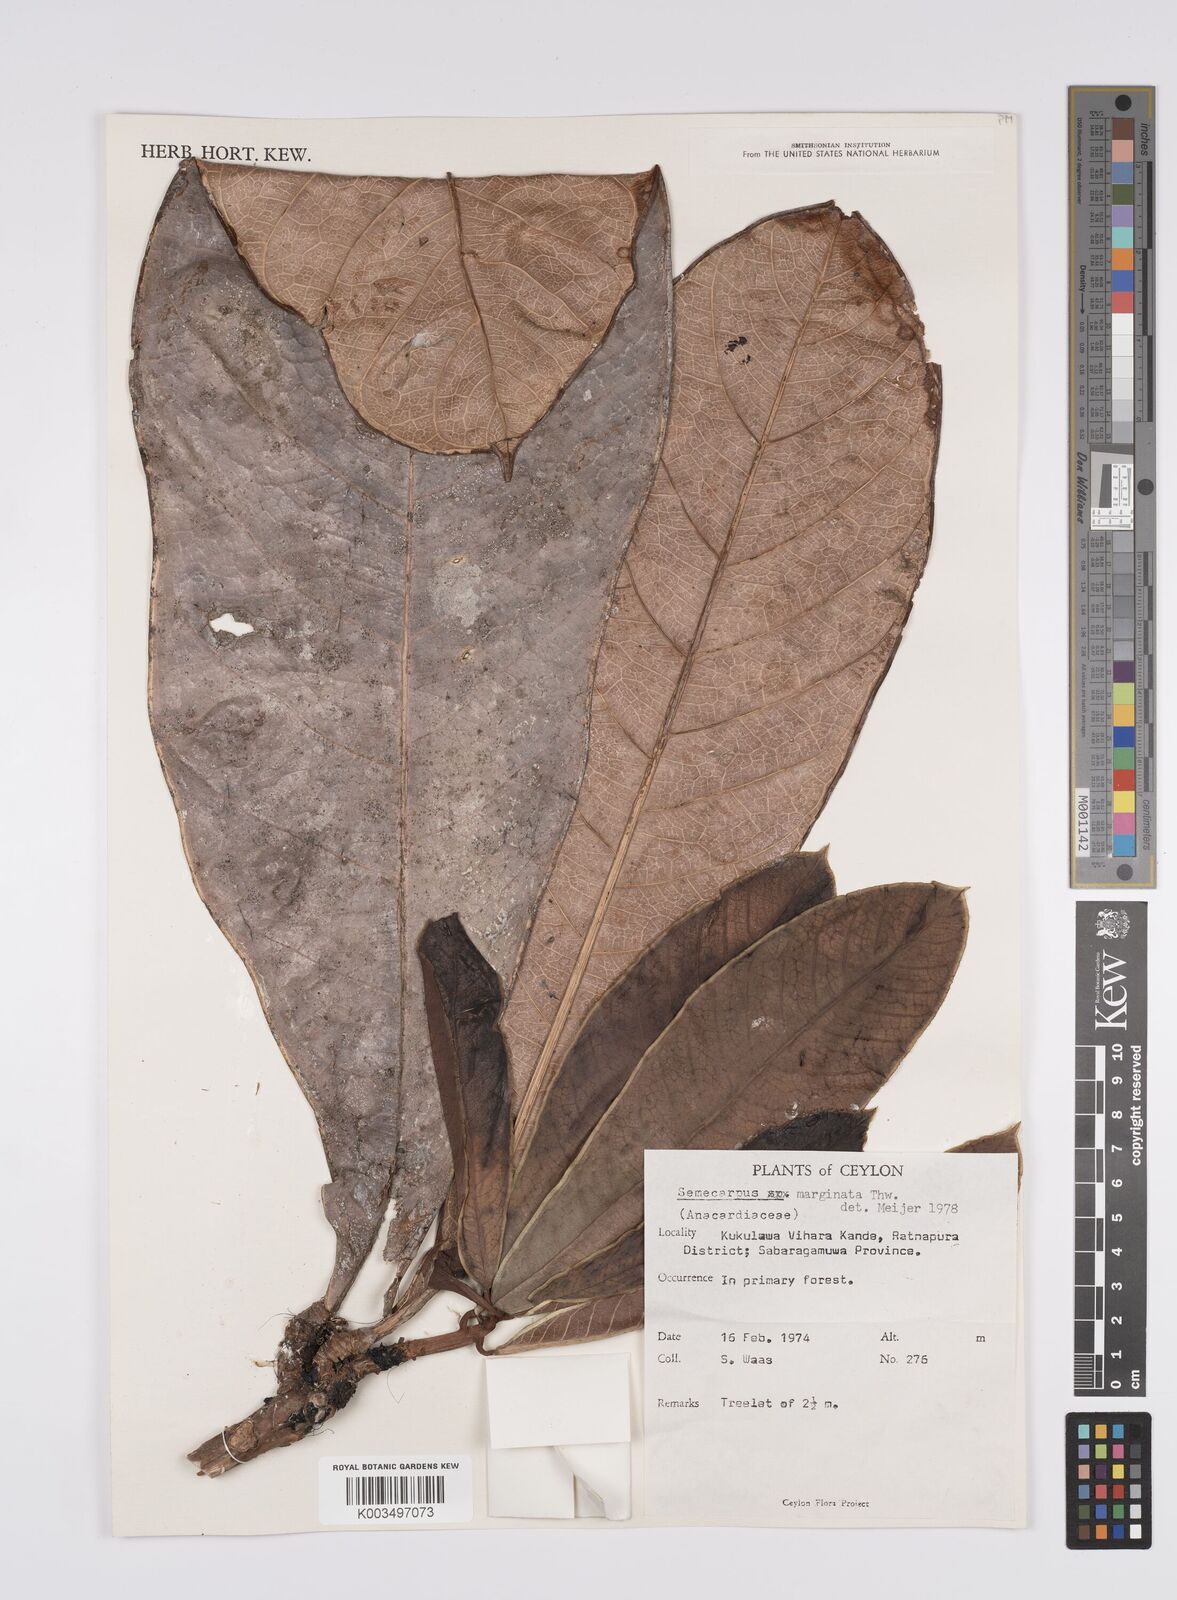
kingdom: Plantae
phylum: Tracheophyta
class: Magnoliopsida
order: Sapindales
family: Anacardiaceae
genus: Semecarpus
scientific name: Semecarpus marginatus
